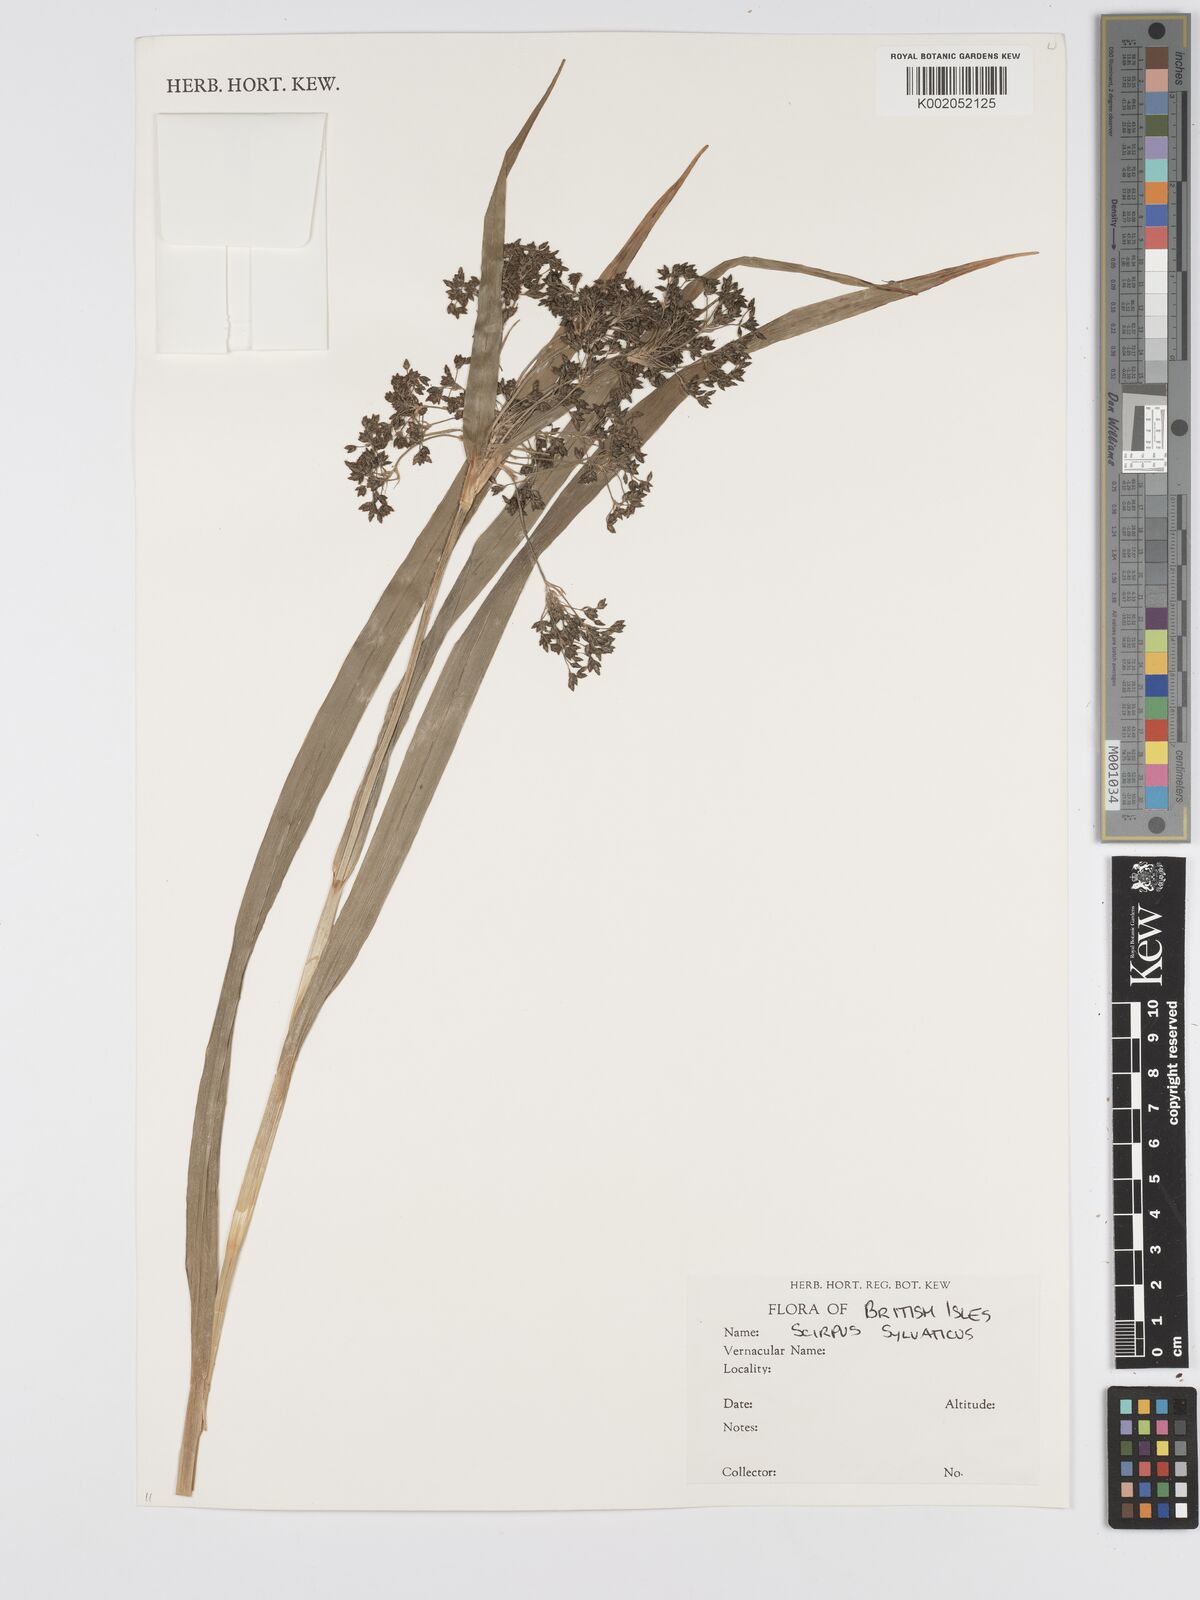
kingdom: Plantae
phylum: Tracheophyta
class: Liliopsida
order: Poales
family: Cyperaceae
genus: Scirpus
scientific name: Scirpus sylvaticus
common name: Wood club-rush
